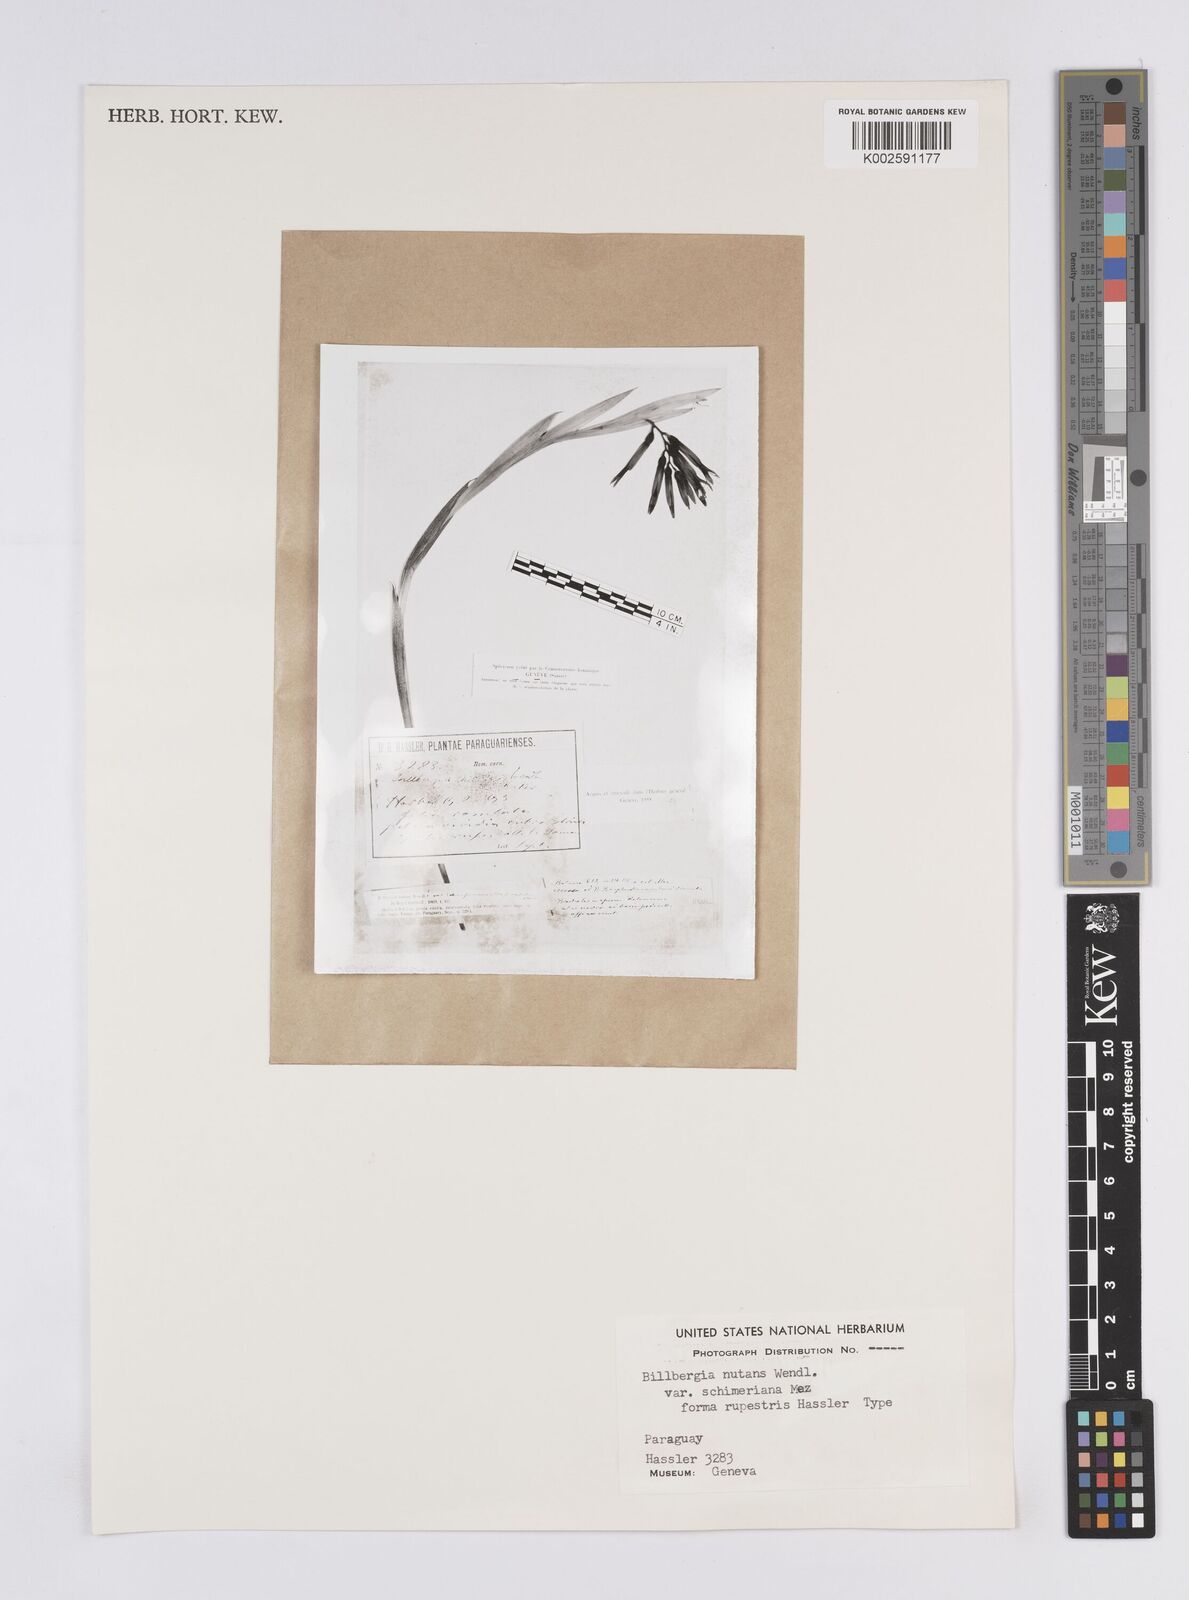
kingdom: Plantae
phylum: Tracheophyta
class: Liliopsida
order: Poales
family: Bromeliaceae
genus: Billbergia
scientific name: Billbergia nutans
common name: Friendship-plant
